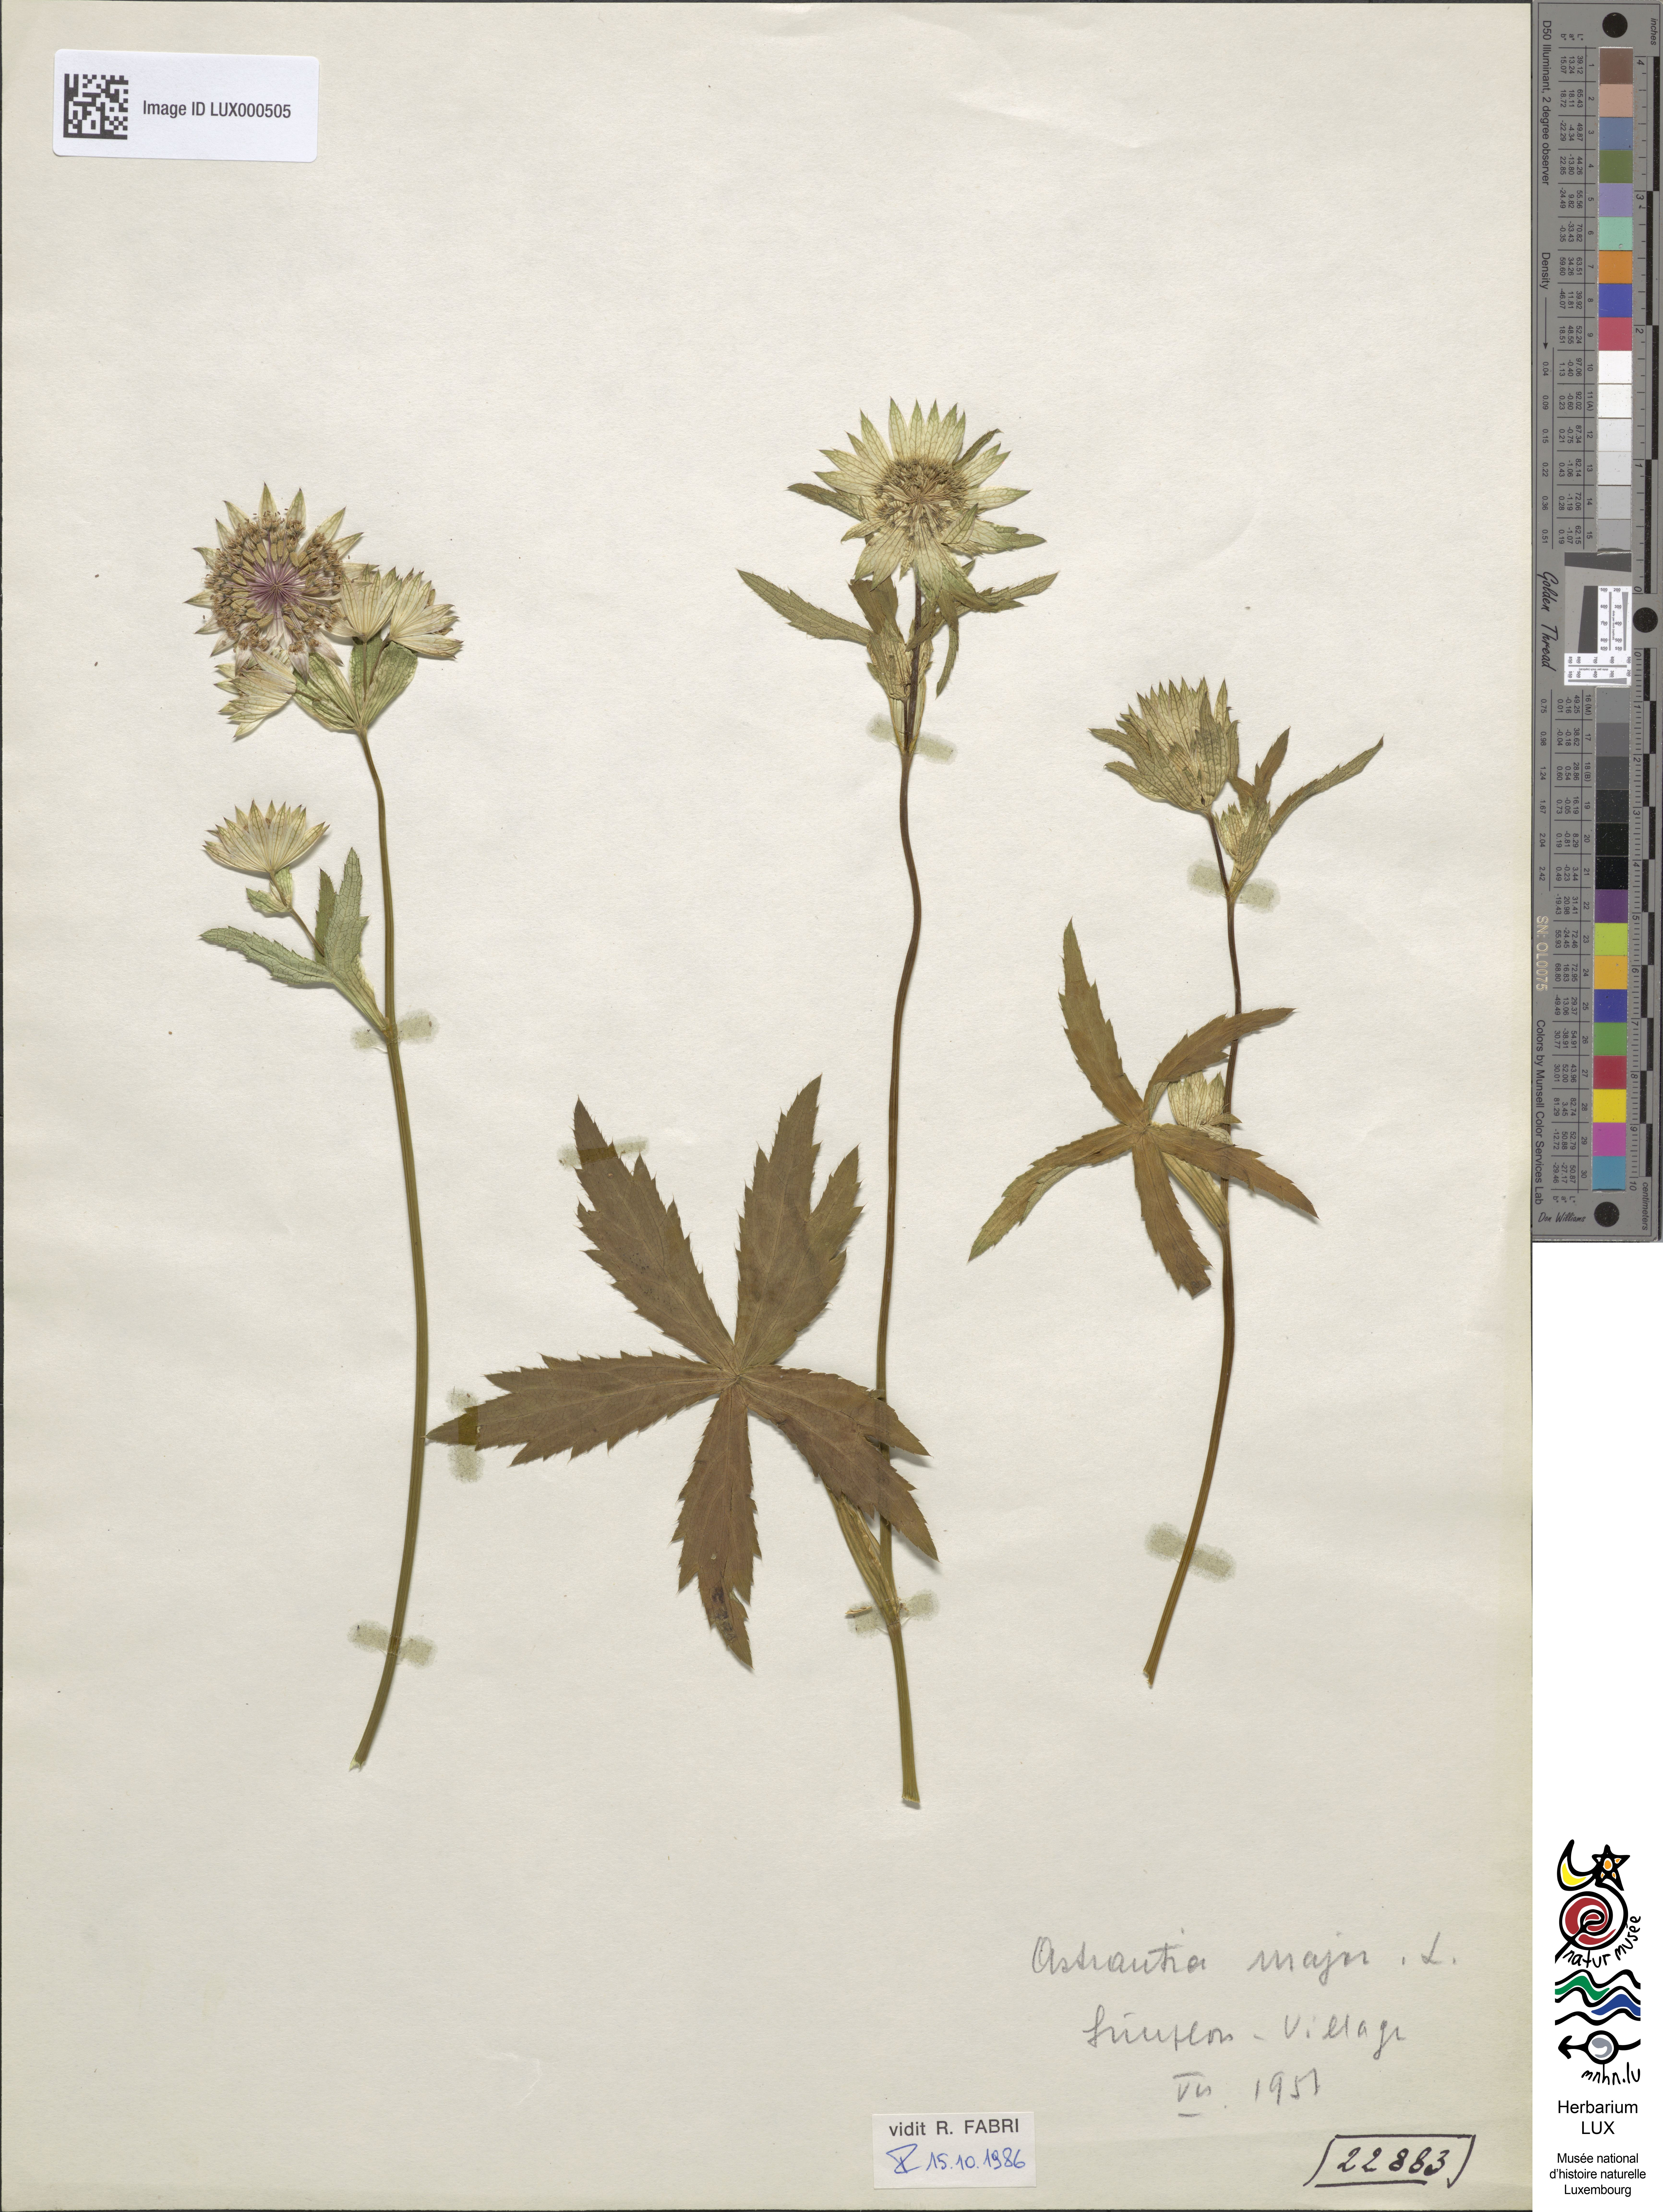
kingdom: Plantae
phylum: Tracheophyta
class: Magnoliopsida
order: Apiales
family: Apiaceae
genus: Astrantia
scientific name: Astrantia major
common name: Greater masterwort
